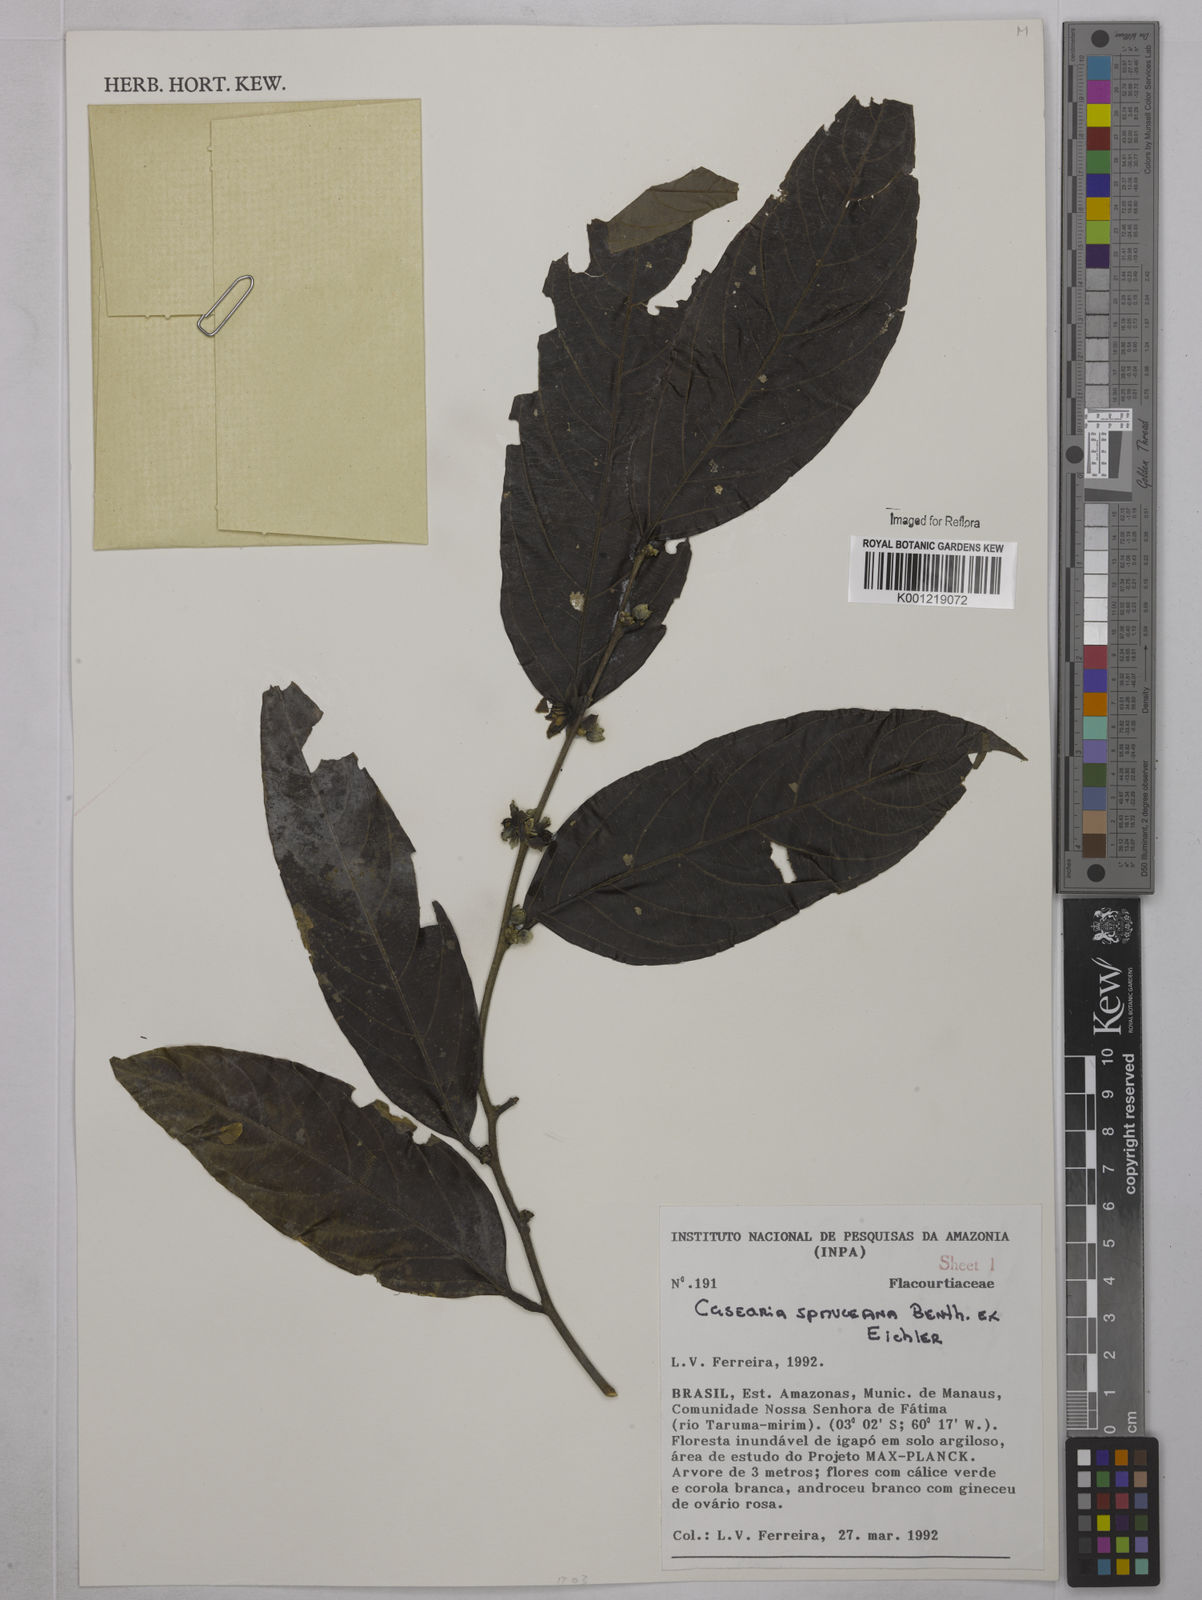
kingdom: Plantae
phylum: Tracheophyta
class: Magnoliopsida
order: Malpighiales
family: Salicaceae
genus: Piparea
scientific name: Piparea spruceana
